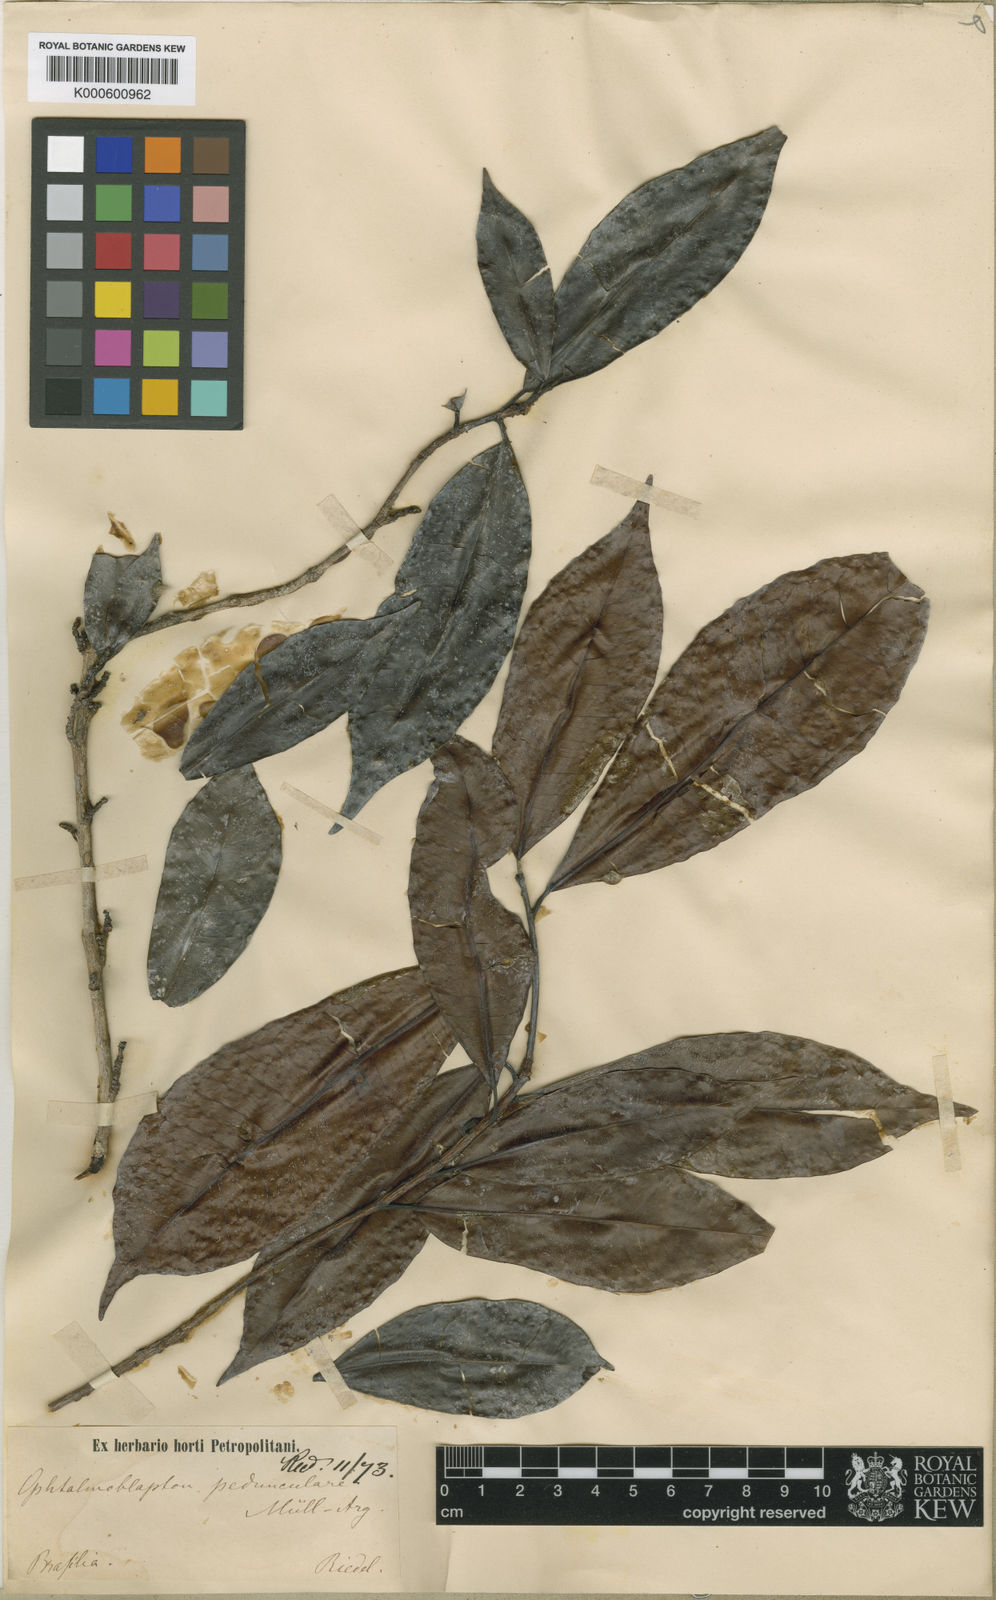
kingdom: Plantae
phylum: Tracheophyta
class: Magnoliopsida
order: Malpighiales
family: Euphorbiaceae
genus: Ophthalmoblapton
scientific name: Ophthalmoblapton
